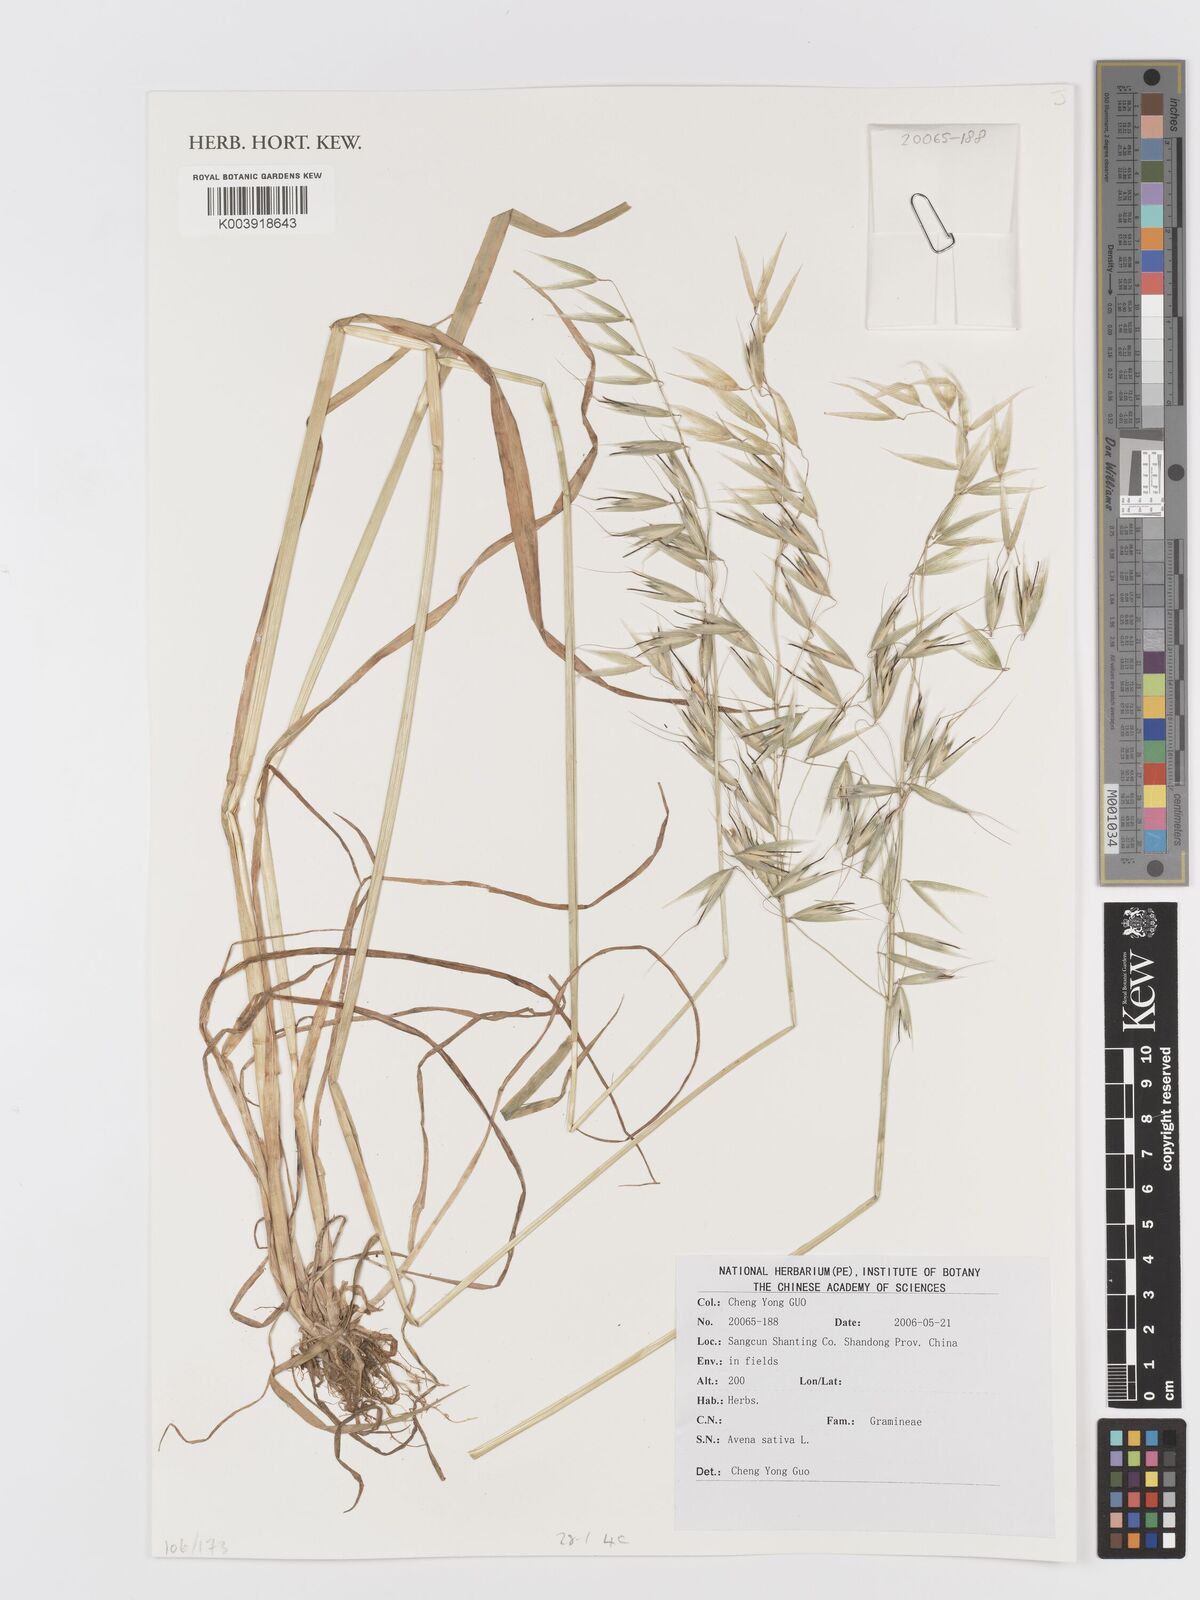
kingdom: Plantae
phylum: Tracheophyta
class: Liliopsida
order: Poales
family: Poaceae
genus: Avena
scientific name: Avena sativa
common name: Oat
